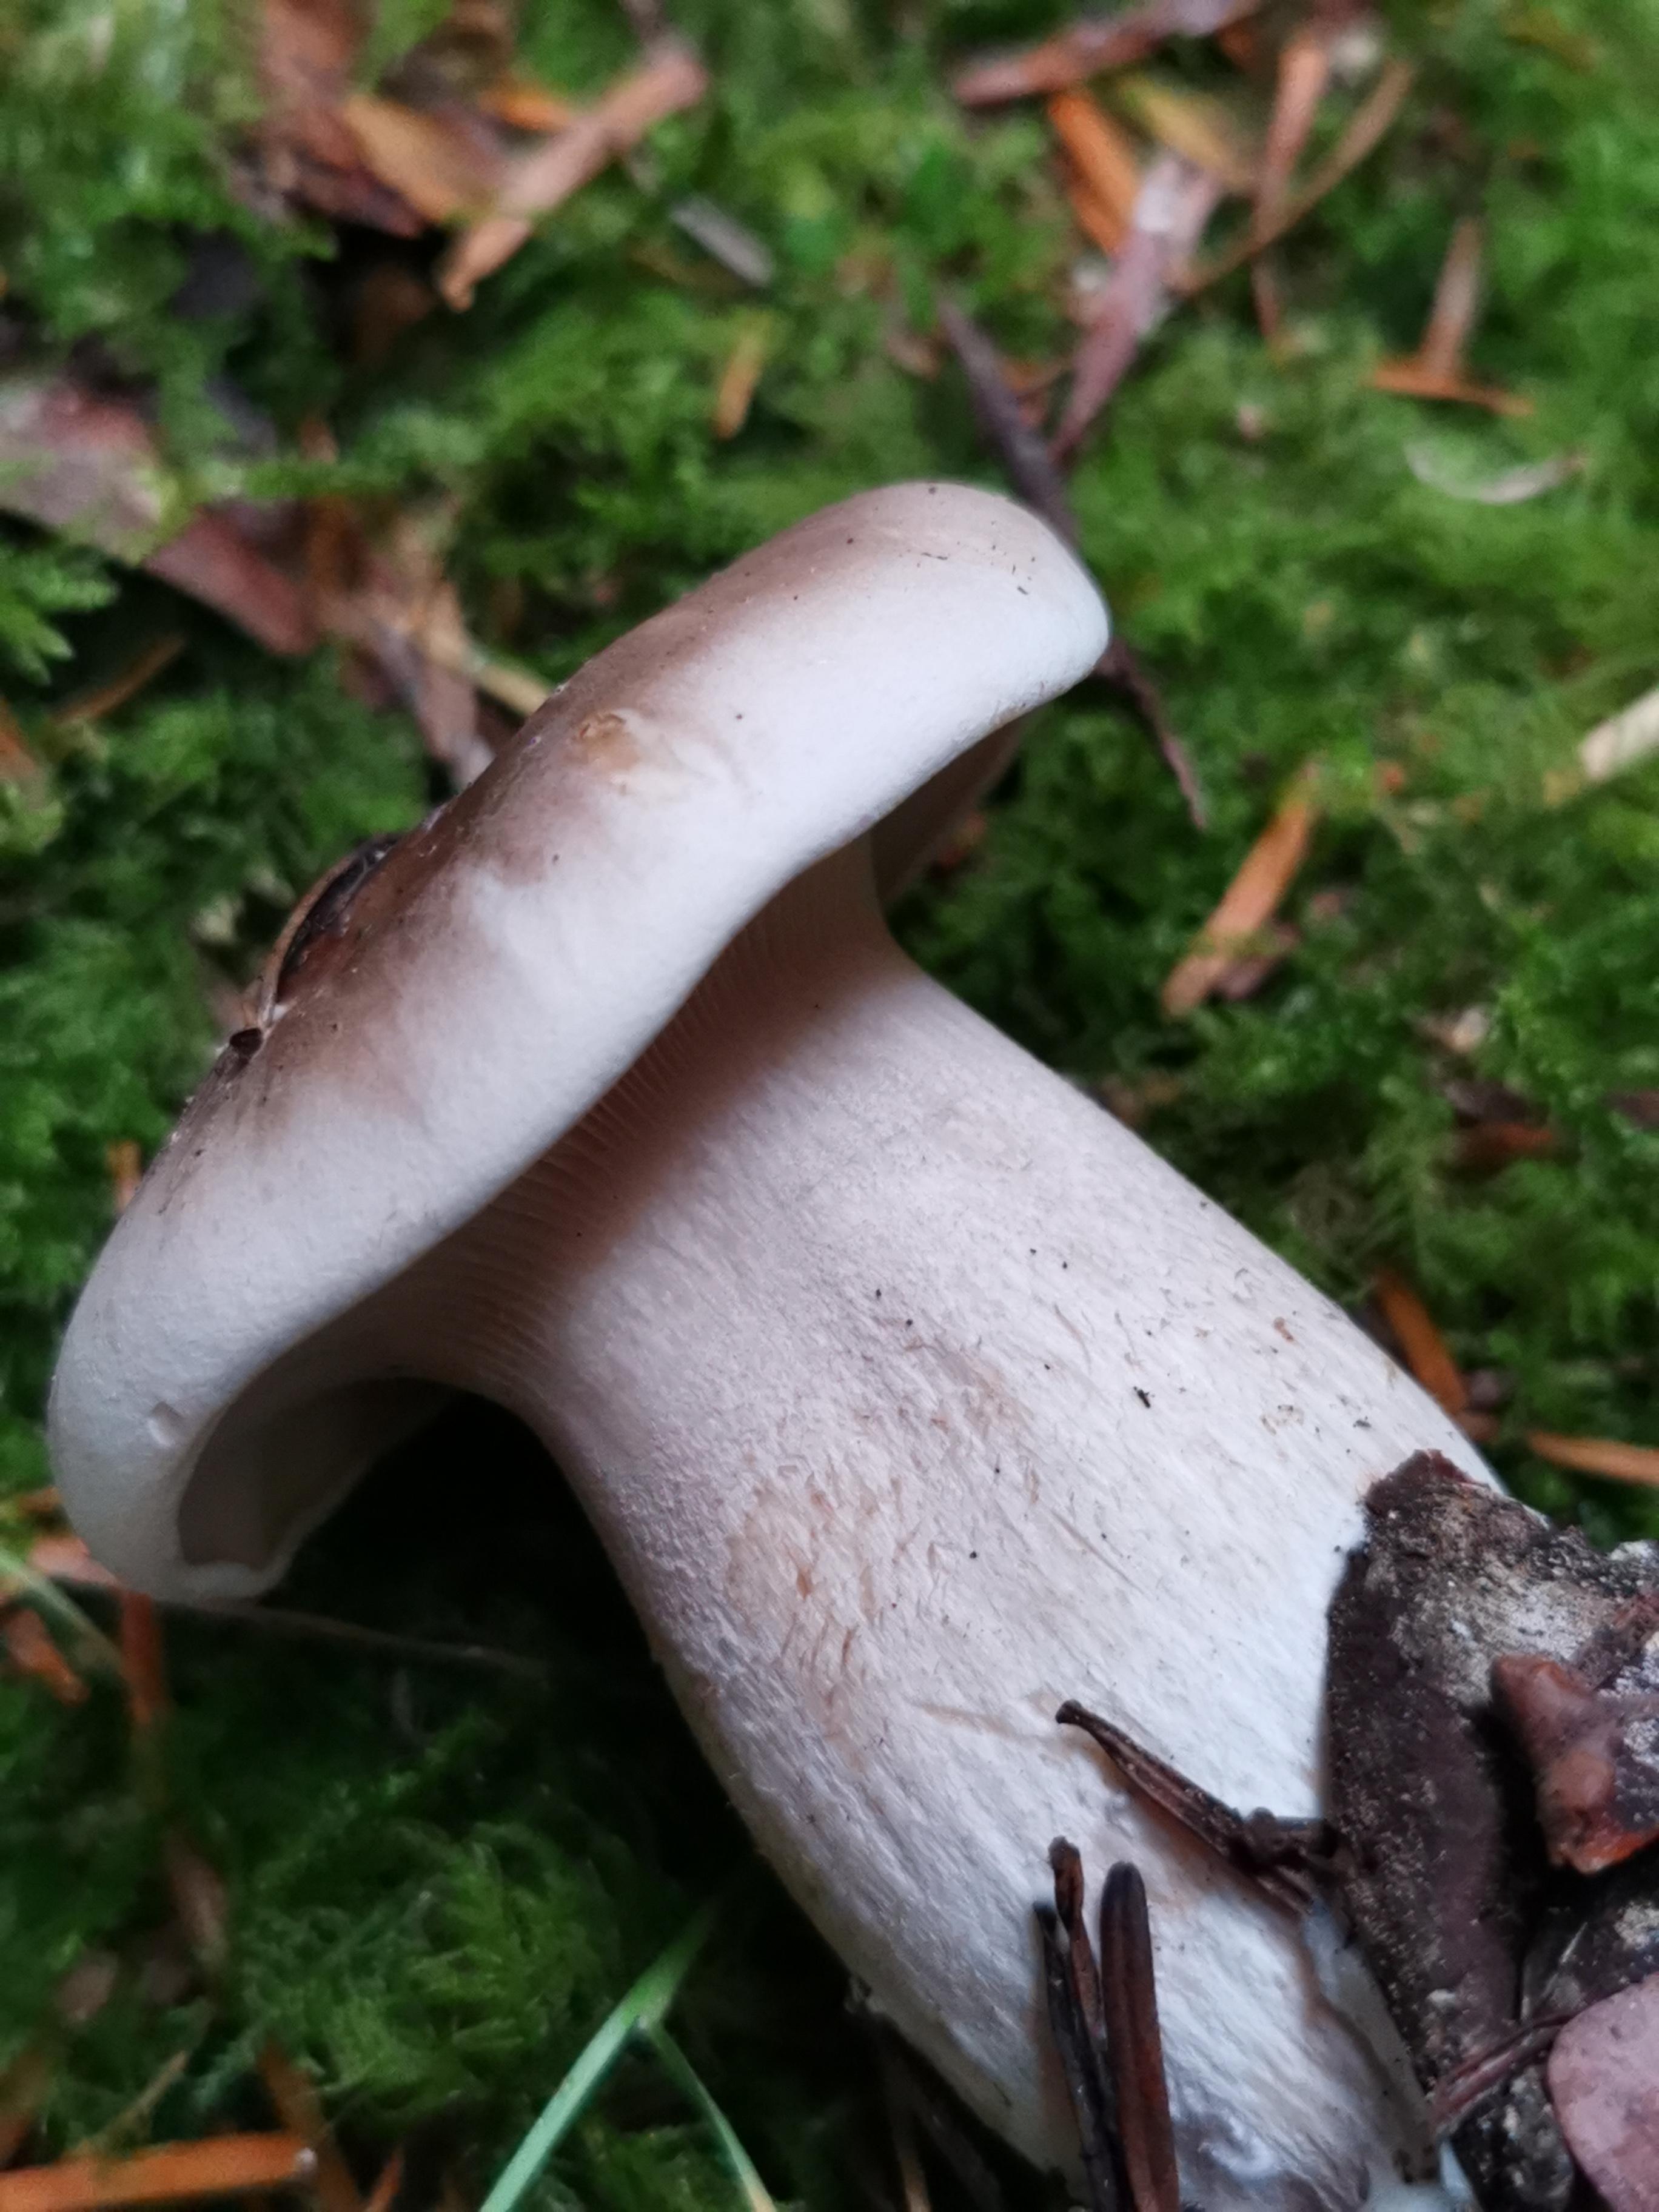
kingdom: Fungi
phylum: Basidiomycota
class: Agaricomycetes
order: Agaricales
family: Tricholomataceae
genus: Clitocybe
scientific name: Clitocybe nebularis
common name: tåge-tragthat
